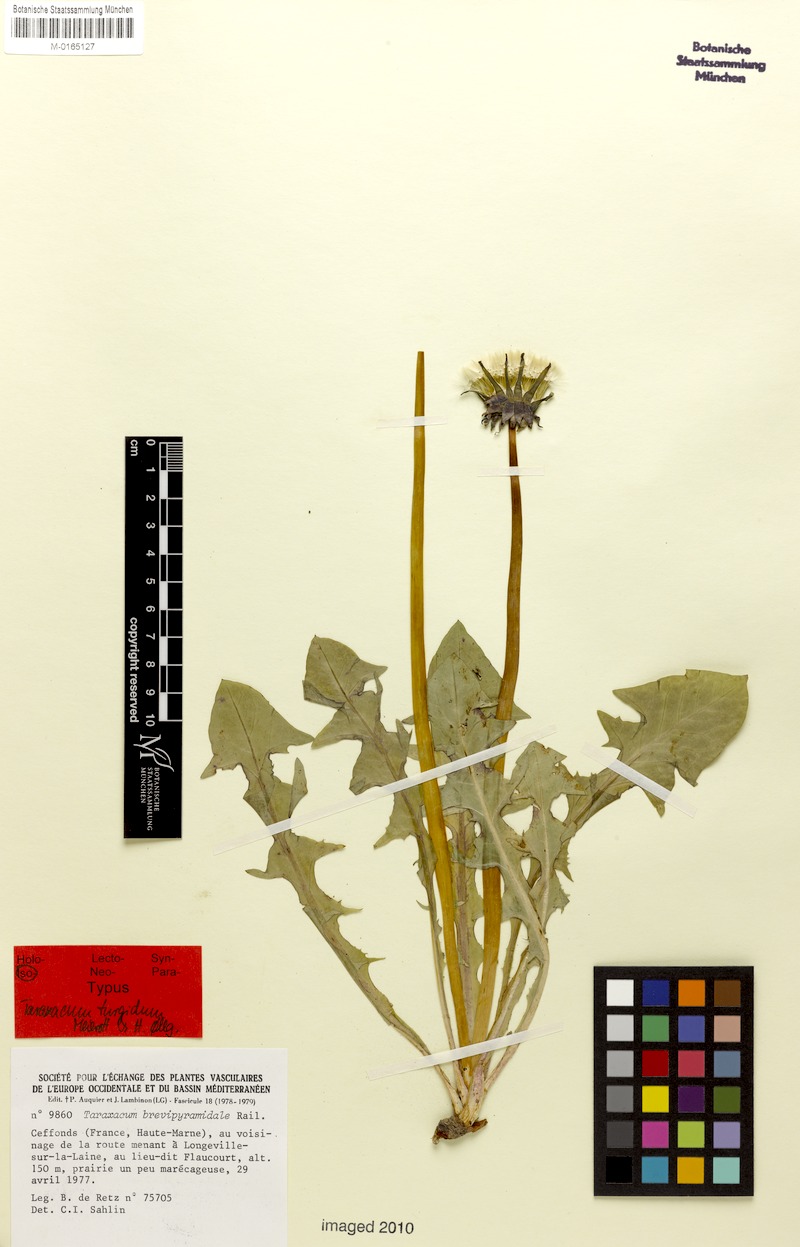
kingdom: Plantae
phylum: Tracheophyta
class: Magnoliopsida
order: Asterales
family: Asteraceae
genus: Taraxacum
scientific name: Taraxacum turgidum
